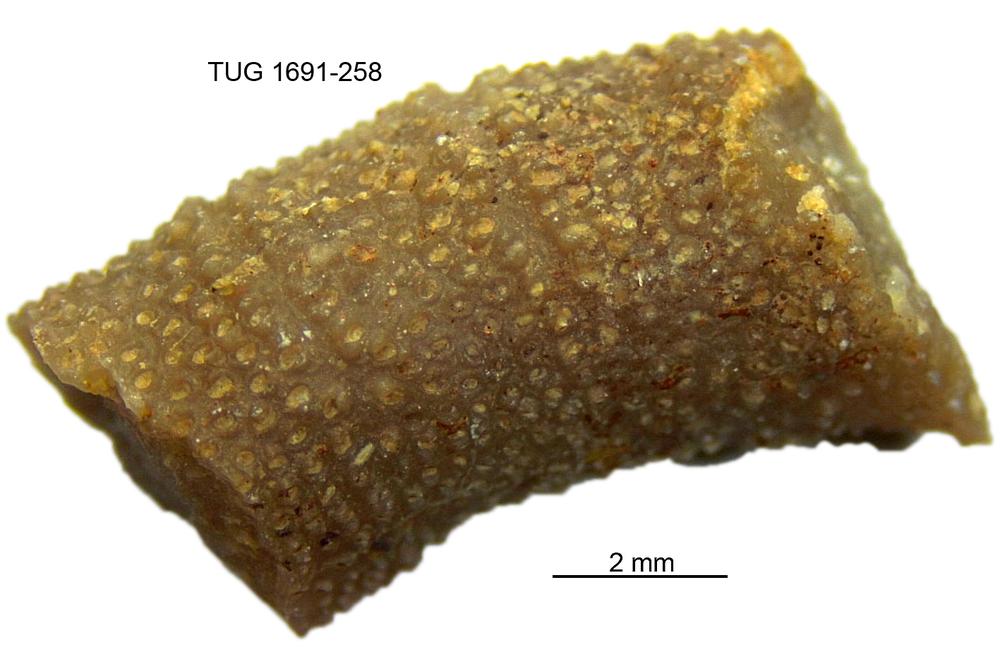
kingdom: Animalia
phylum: Bryozoa
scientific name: Bryozoa
